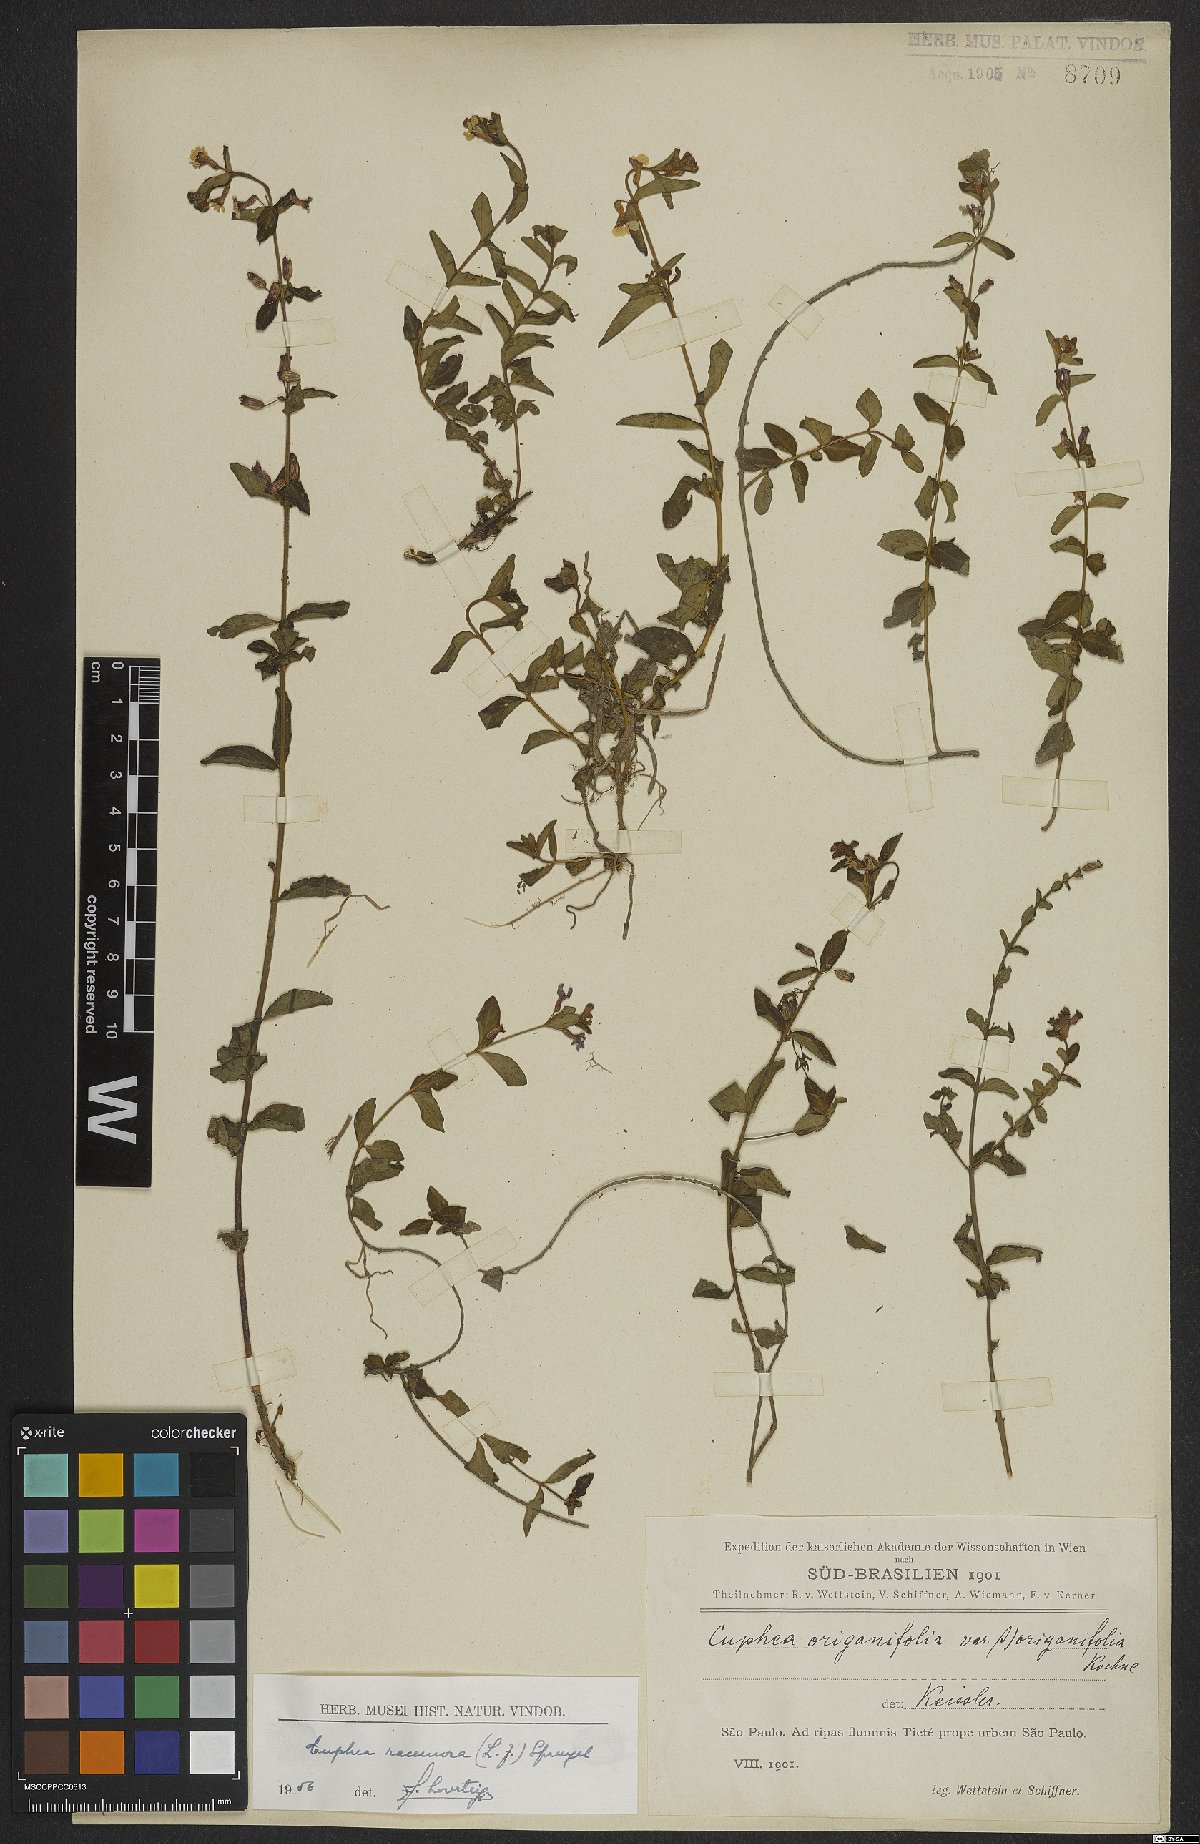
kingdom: Plantae
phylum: Tracheophyta
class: Magnoliopsida
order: Myrtales
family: Lythraceae
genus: Cuphea
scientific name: Cuphea racemosa
